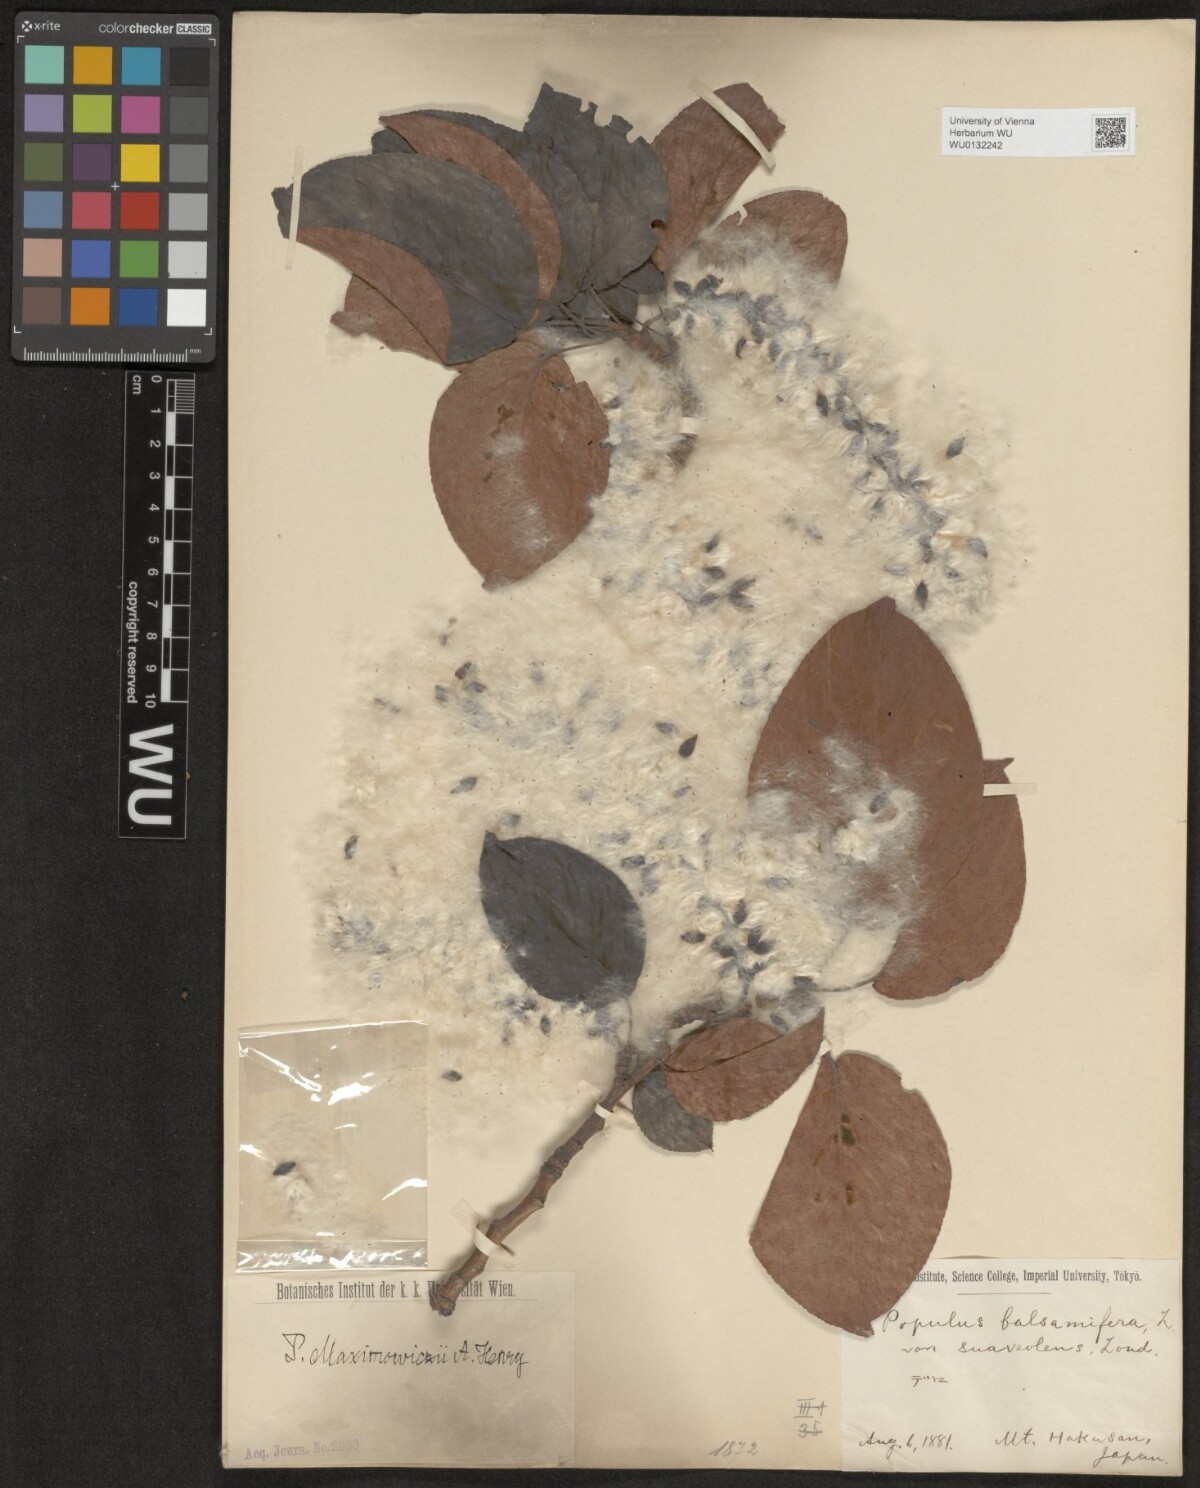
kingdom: Plantae
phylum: Tracheophyta
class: Magnoliopsida
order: Malpighiales
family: Salicaceae
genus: Populus
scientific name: Populus suaveolens
